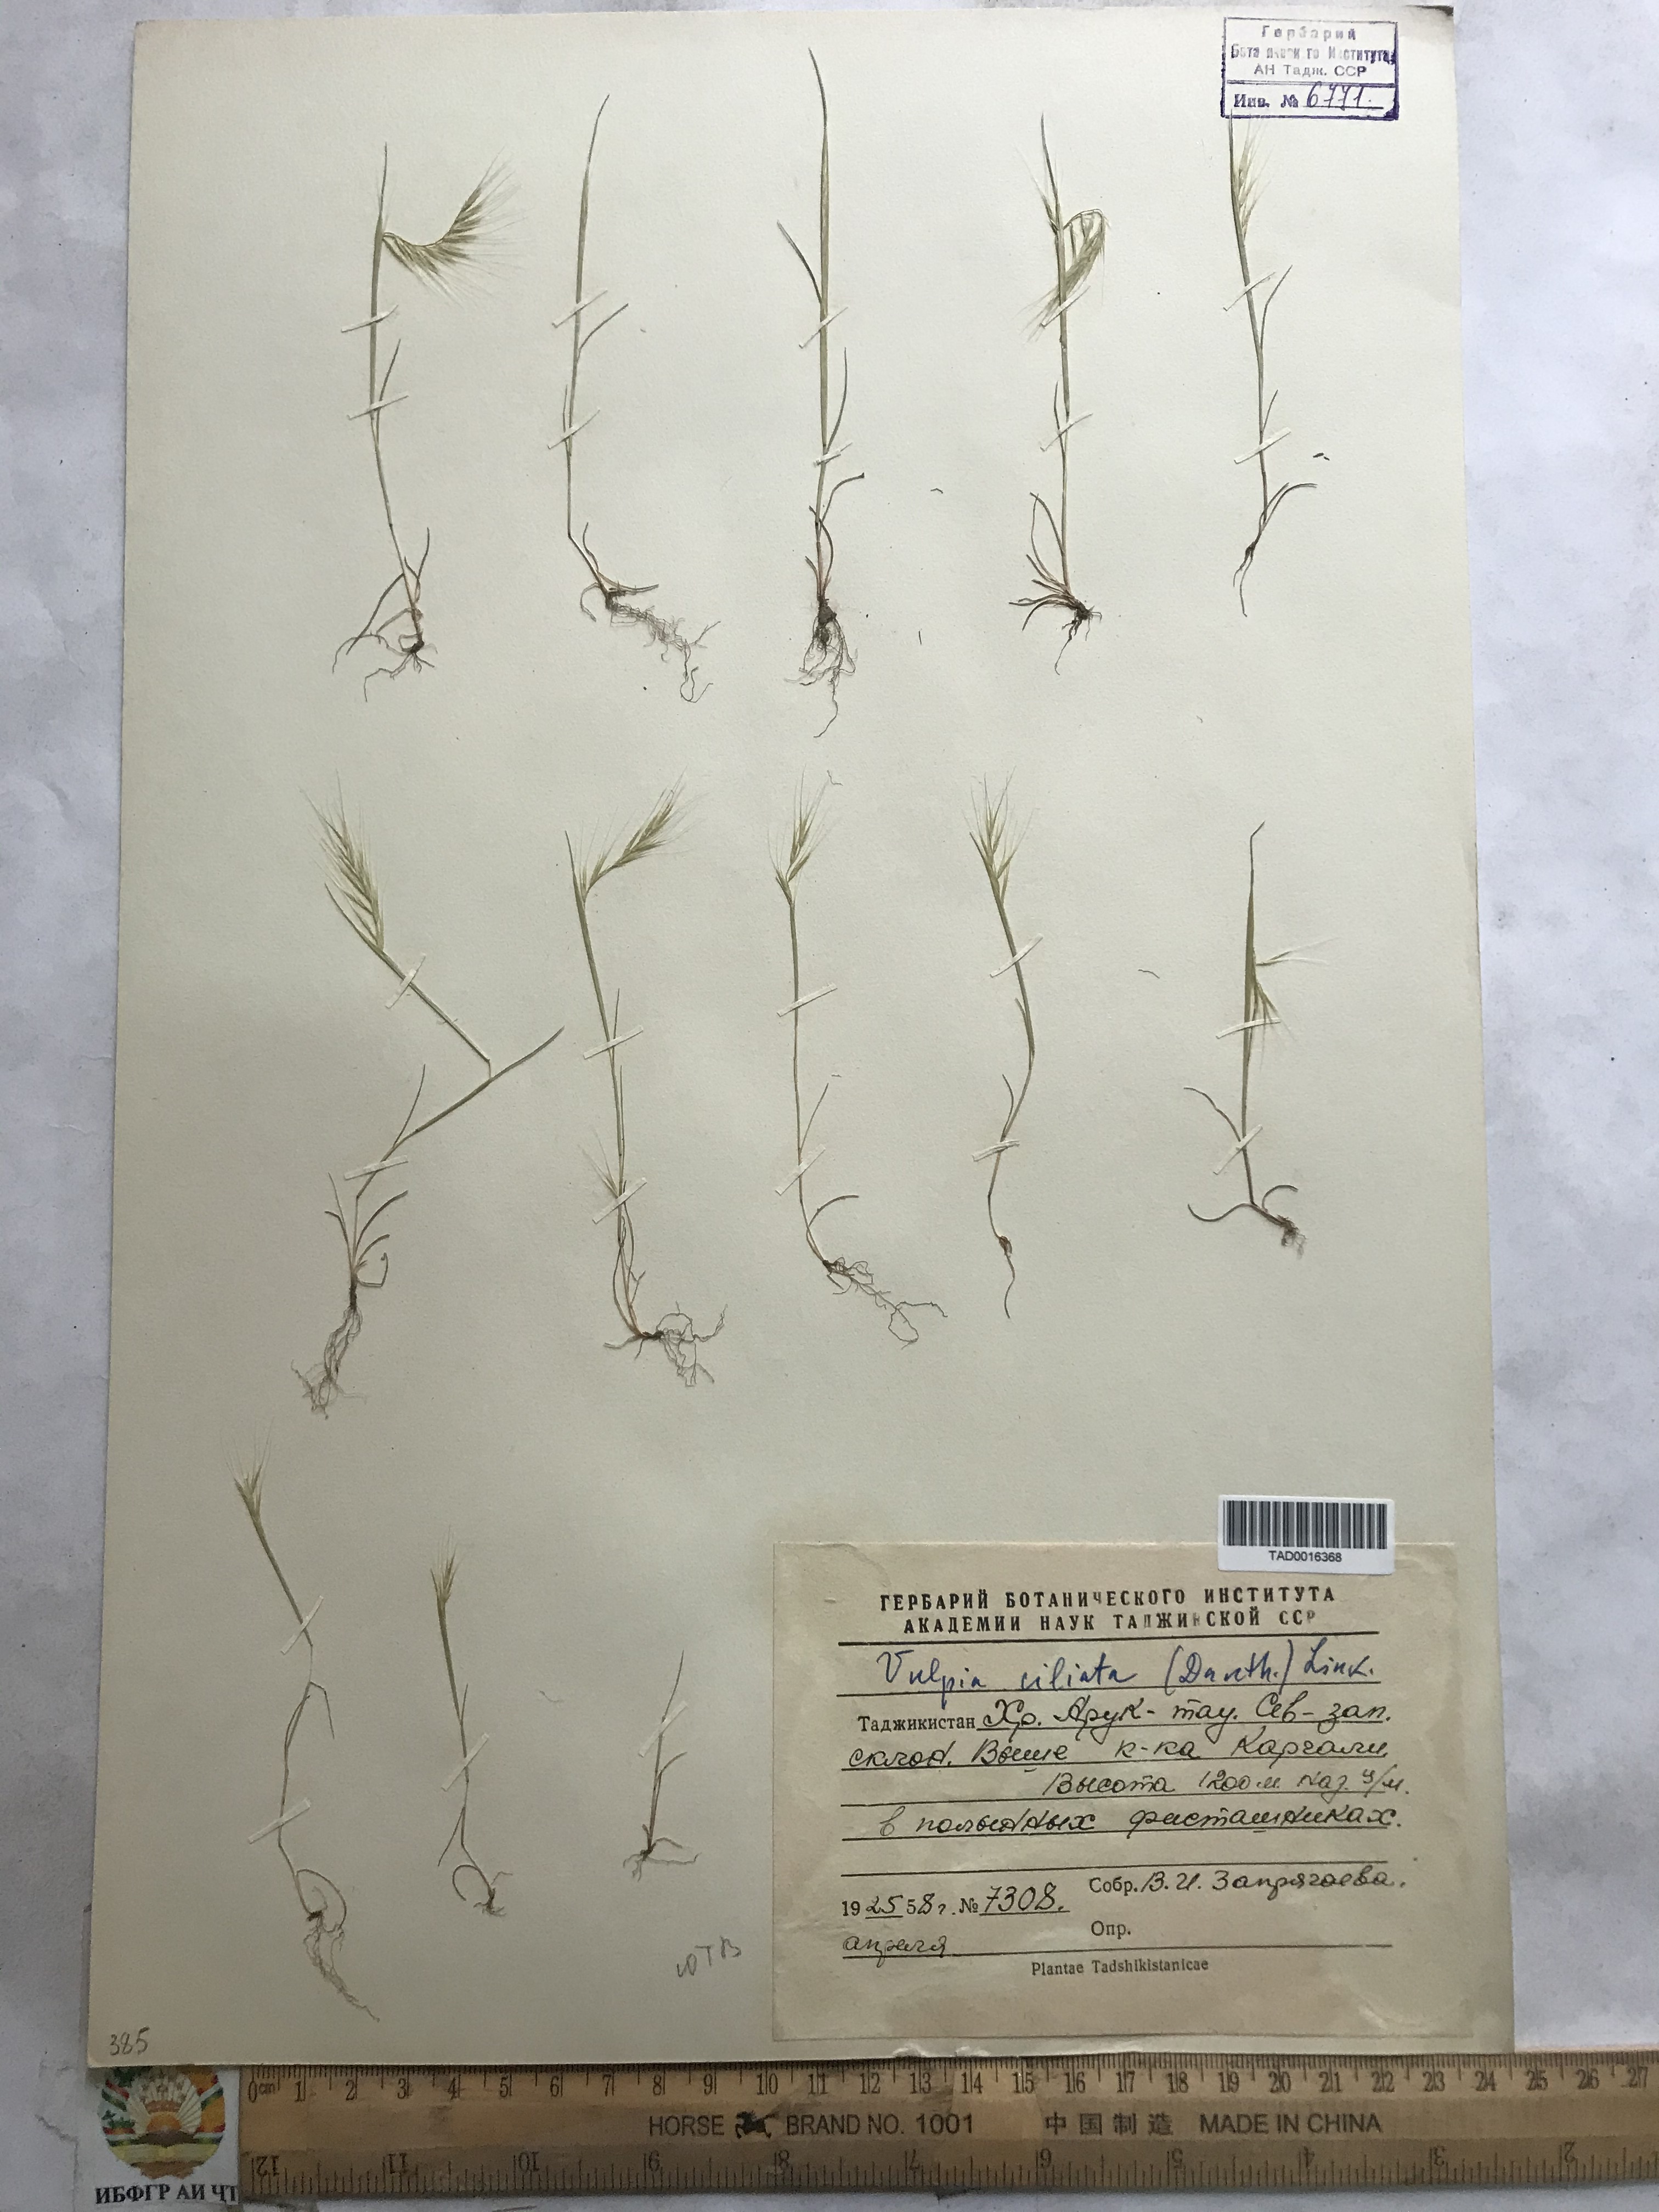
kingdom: Plantae
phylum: Tracheophyta
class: Liliopsida
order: Poales
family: Poaceae
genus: Festuca
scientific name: Festuca ambigua
